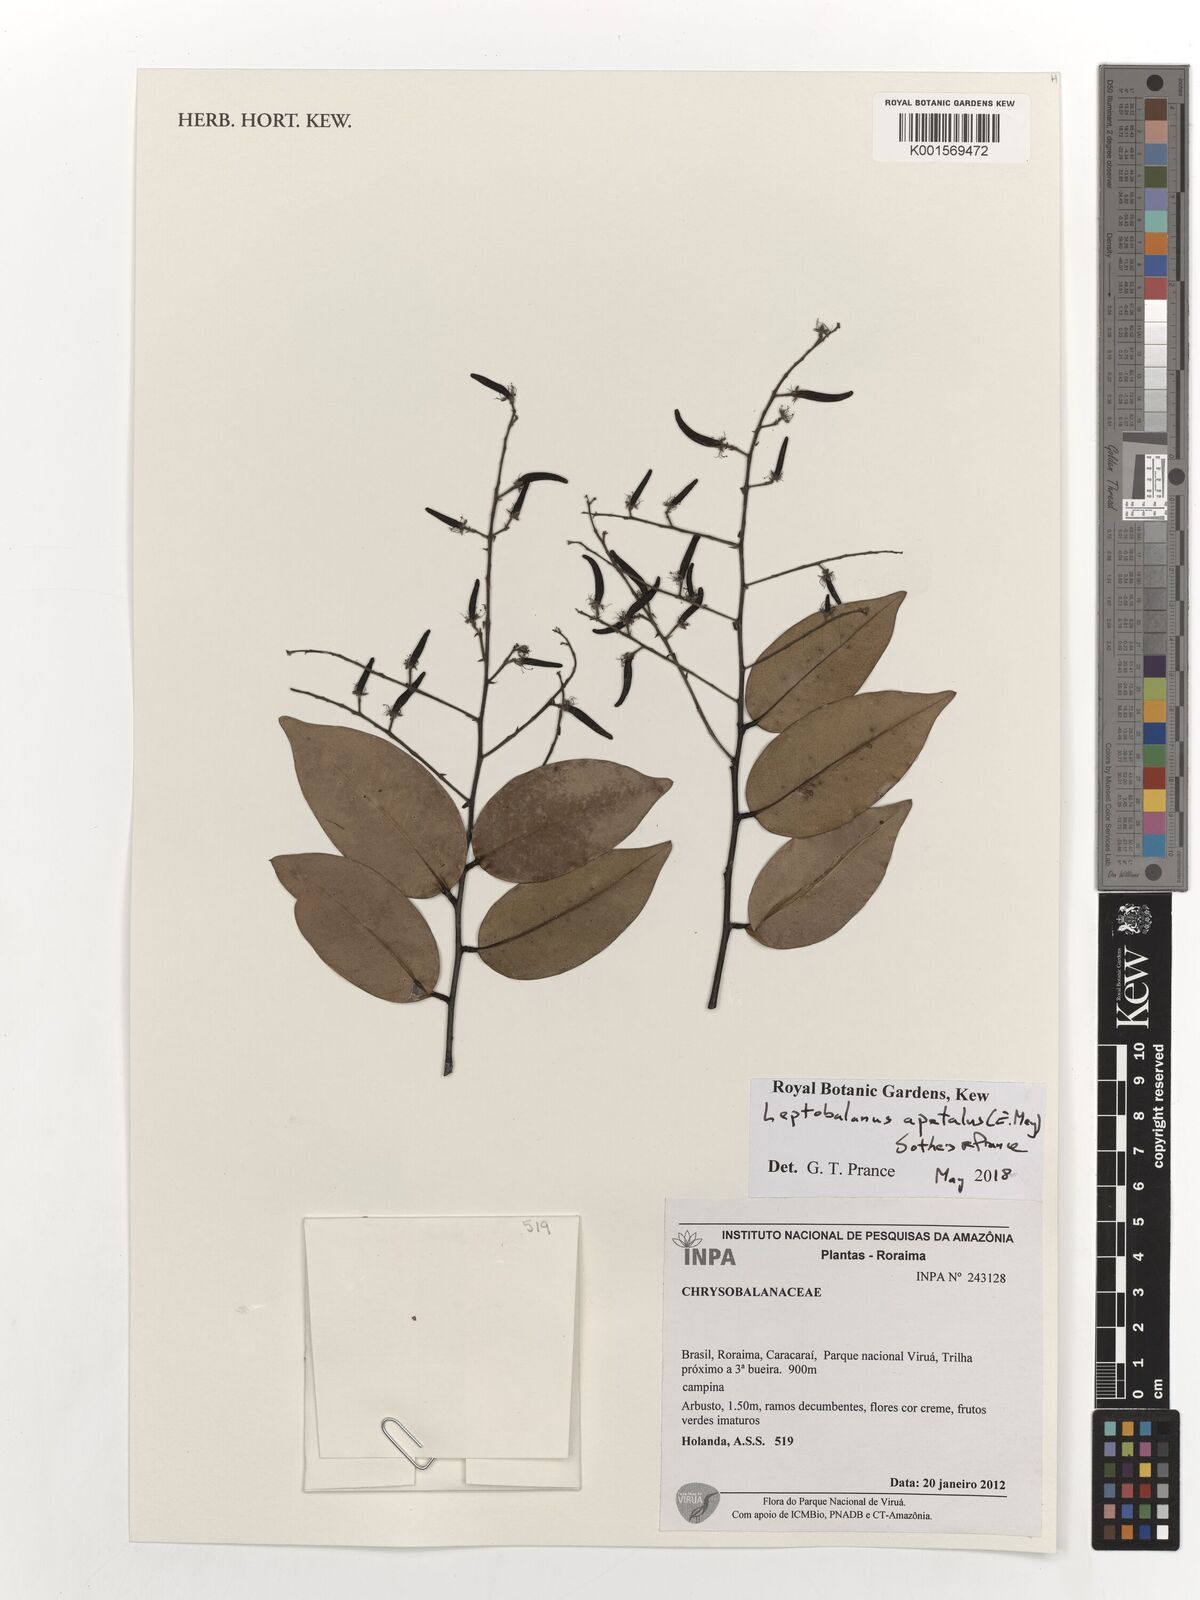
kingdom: Plantae
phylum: Tracheophyta
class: Magnoliopsida
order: Malpighiales
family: Chrysobalanaceae
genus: Leptobalanus
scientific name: Leptobalanus apetalus
